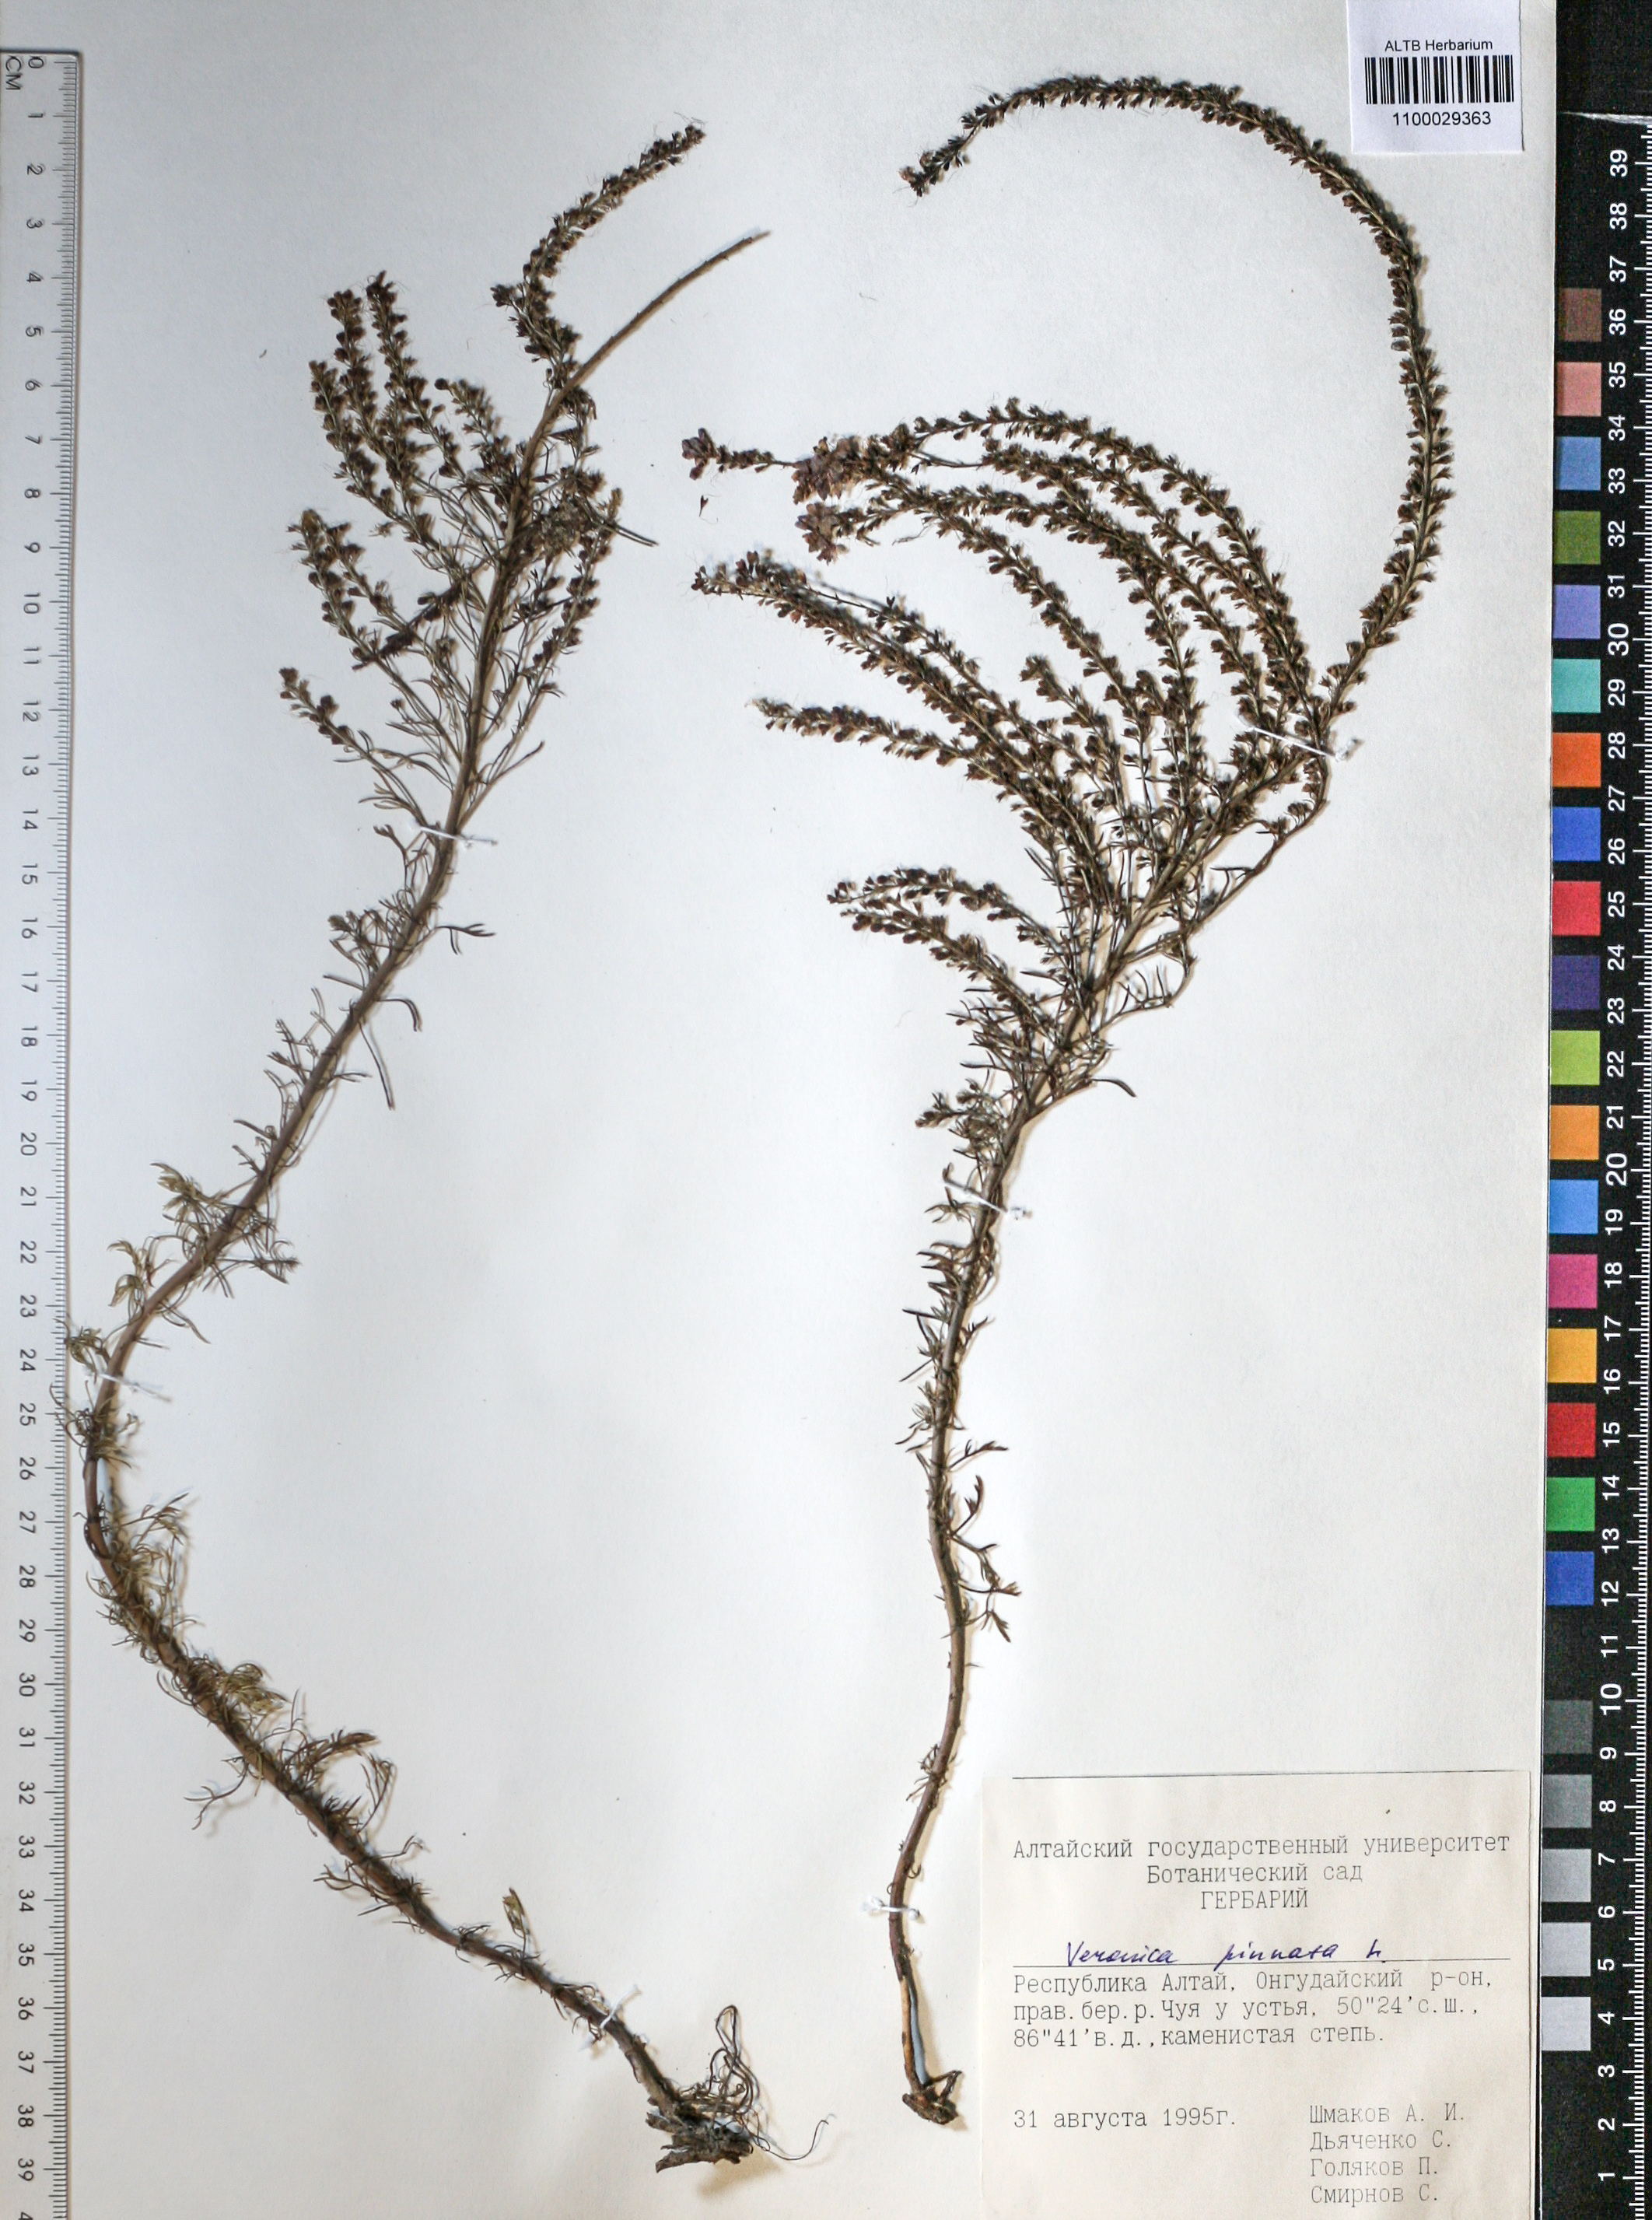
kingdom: Plantae
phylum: Tracheophyta
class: Magnoliopsida
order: Lamiales
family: Plantaginaceae
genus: Veronica
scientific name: Veronica pinnata
